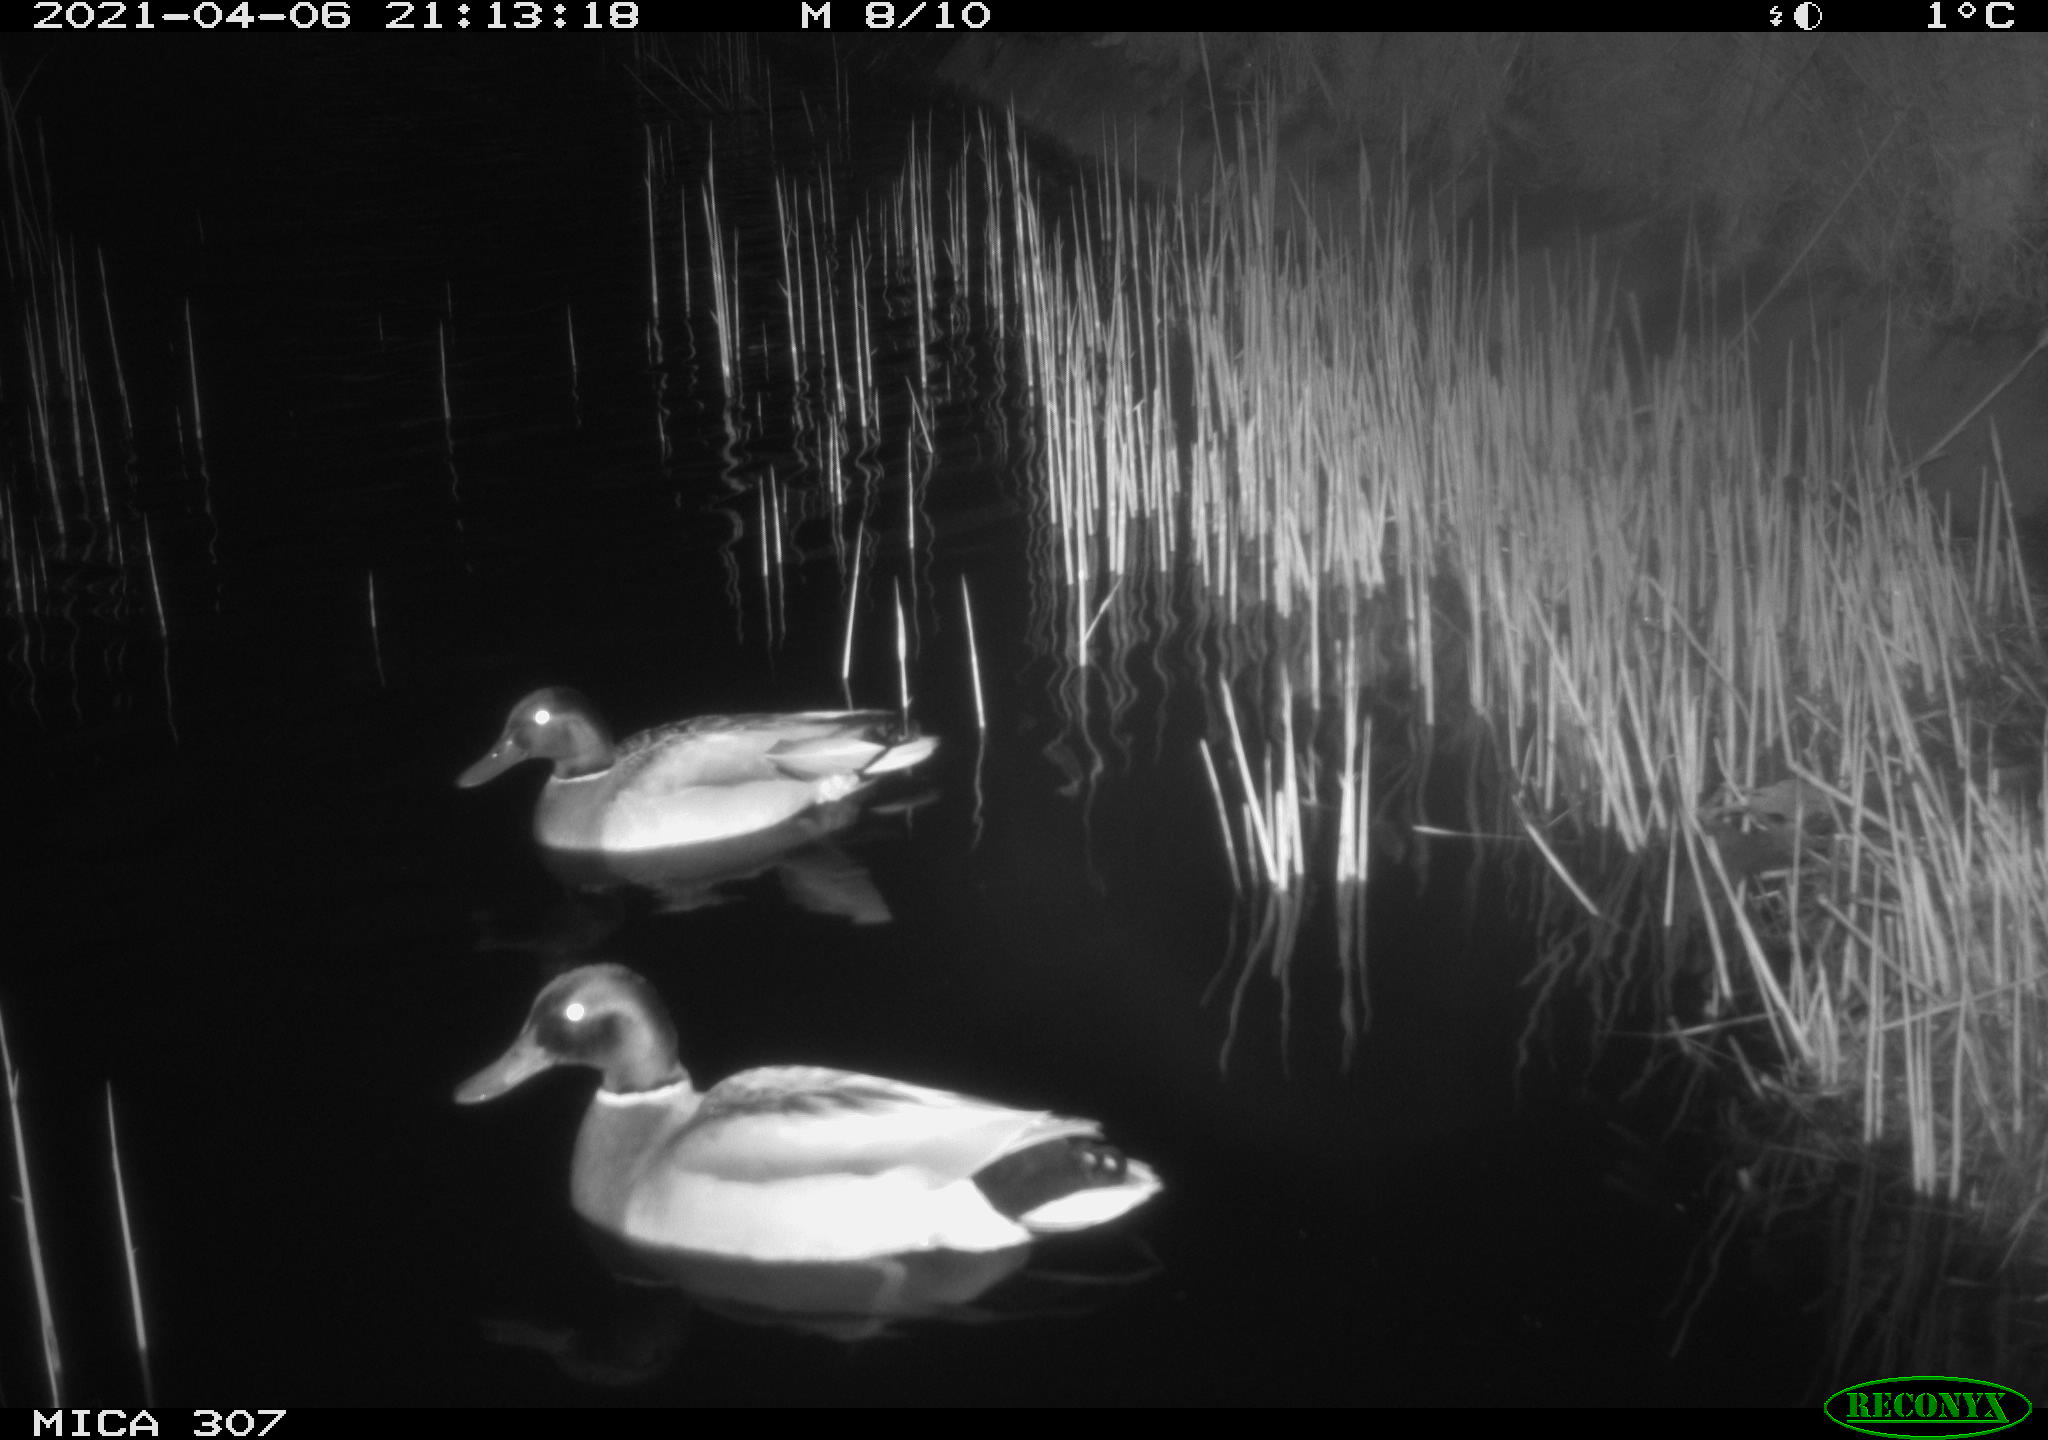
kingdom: Animalia
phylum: Chordata
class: Aves
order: Anseriformes
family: Anatidae
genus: Anas
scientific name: Anas platyrhynchos
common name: Mallard
